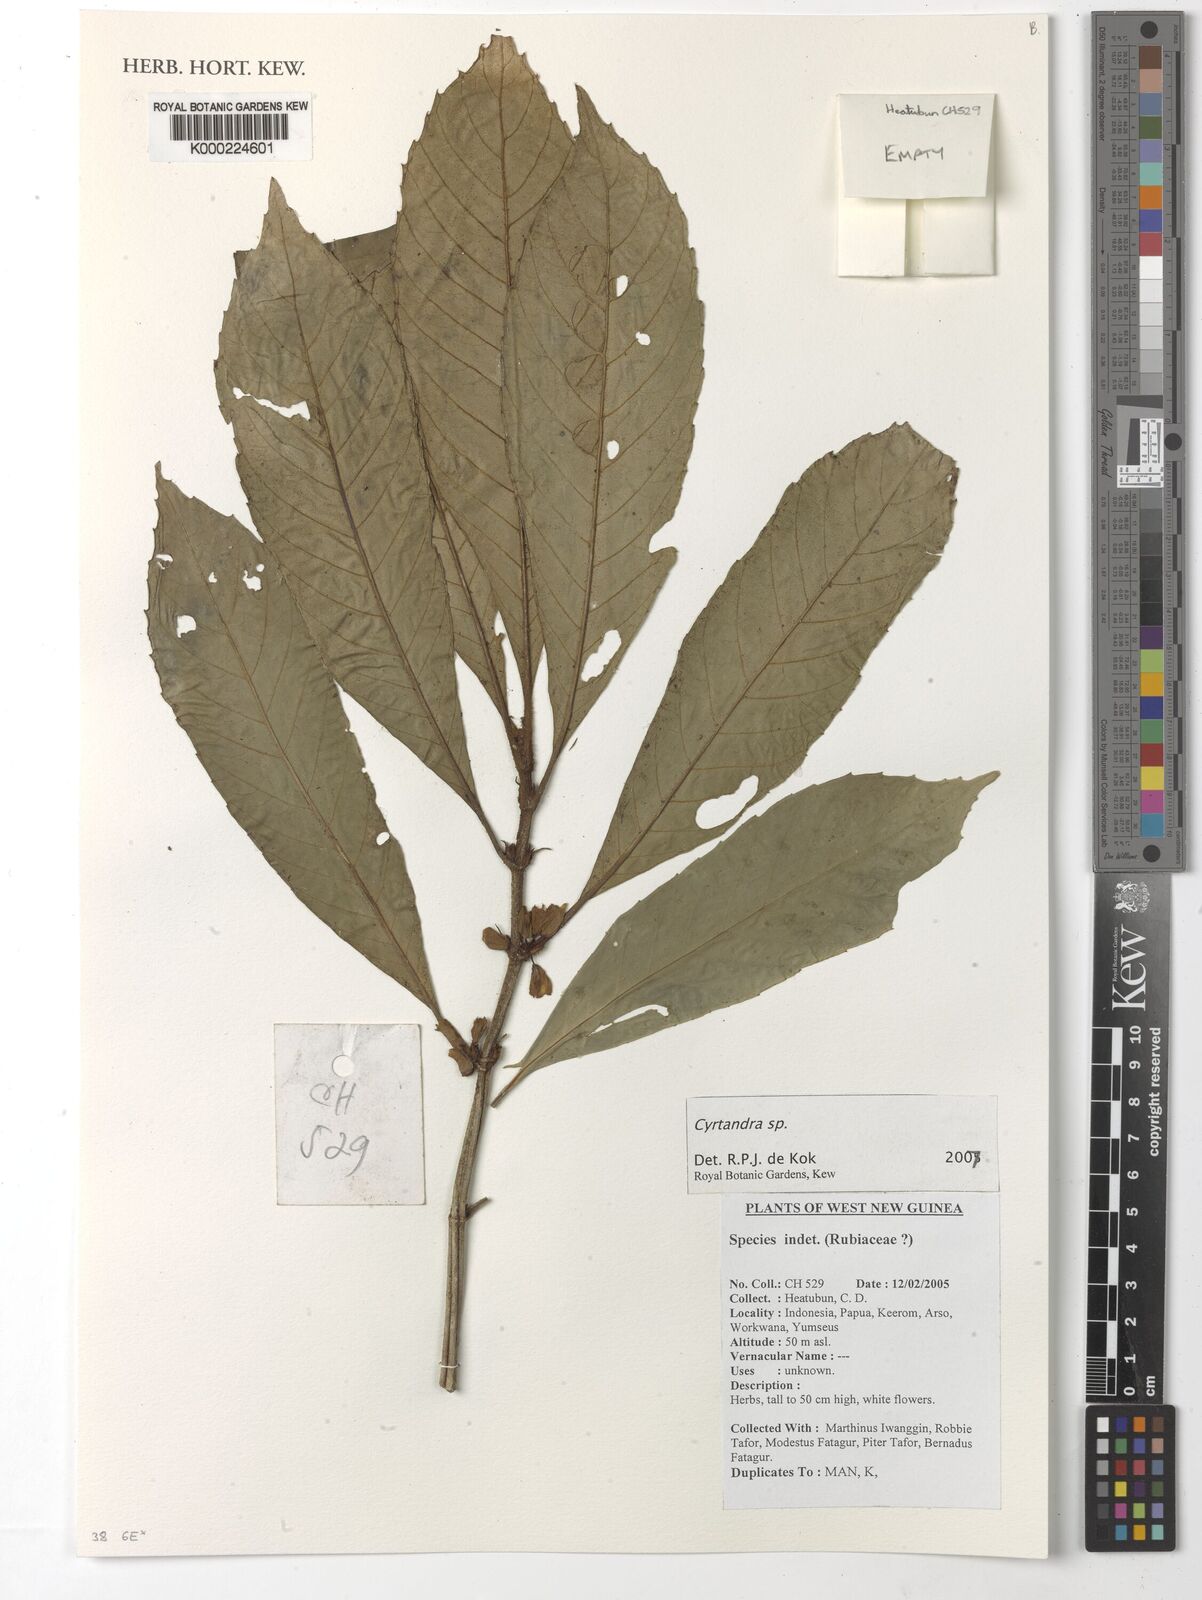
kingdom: Plantae
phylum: Tracheophyta
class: Magnoliopsida
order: Lamiales
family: Gesneriaceae
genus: Cyrtandra
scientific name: Cyrtandra
